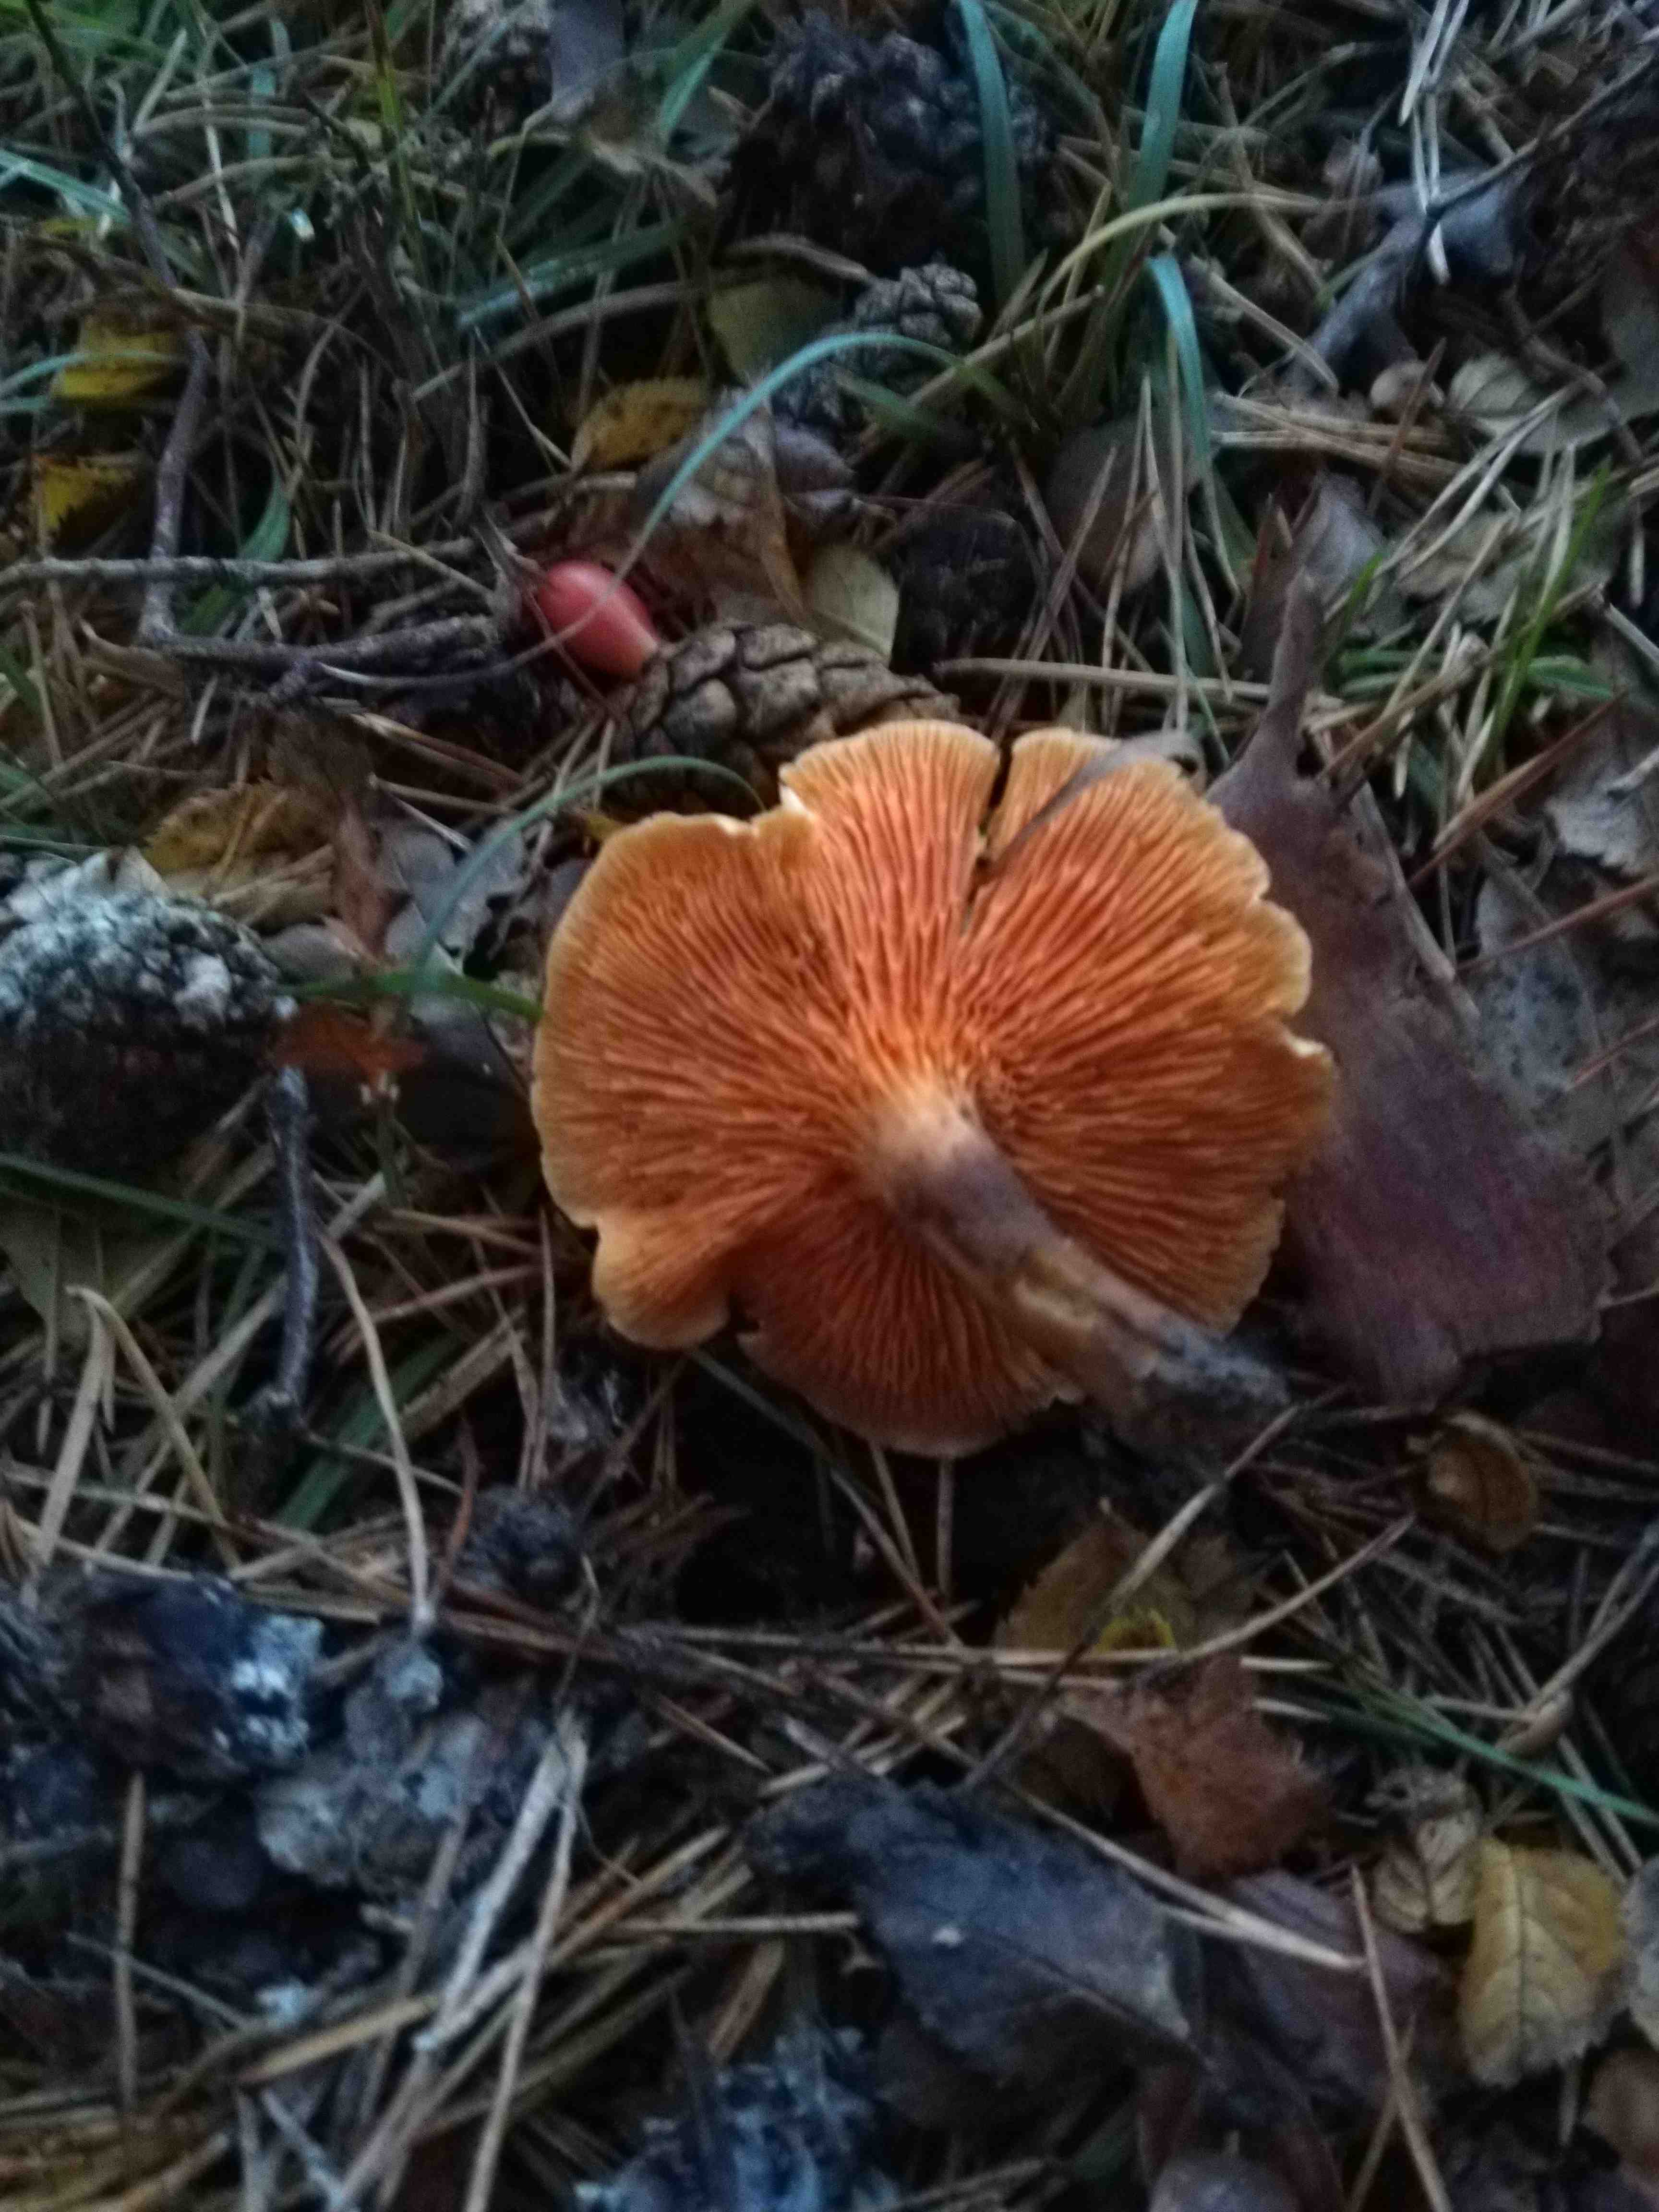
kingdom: Fungi
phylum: Basidiomycota
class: Agaricomycetes
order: Boletales
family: Hygrophoropsidaceae
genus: Hygrophoropsis
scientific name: Hygrophoropsis aurantiaca
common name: almindelig orangekantarel
